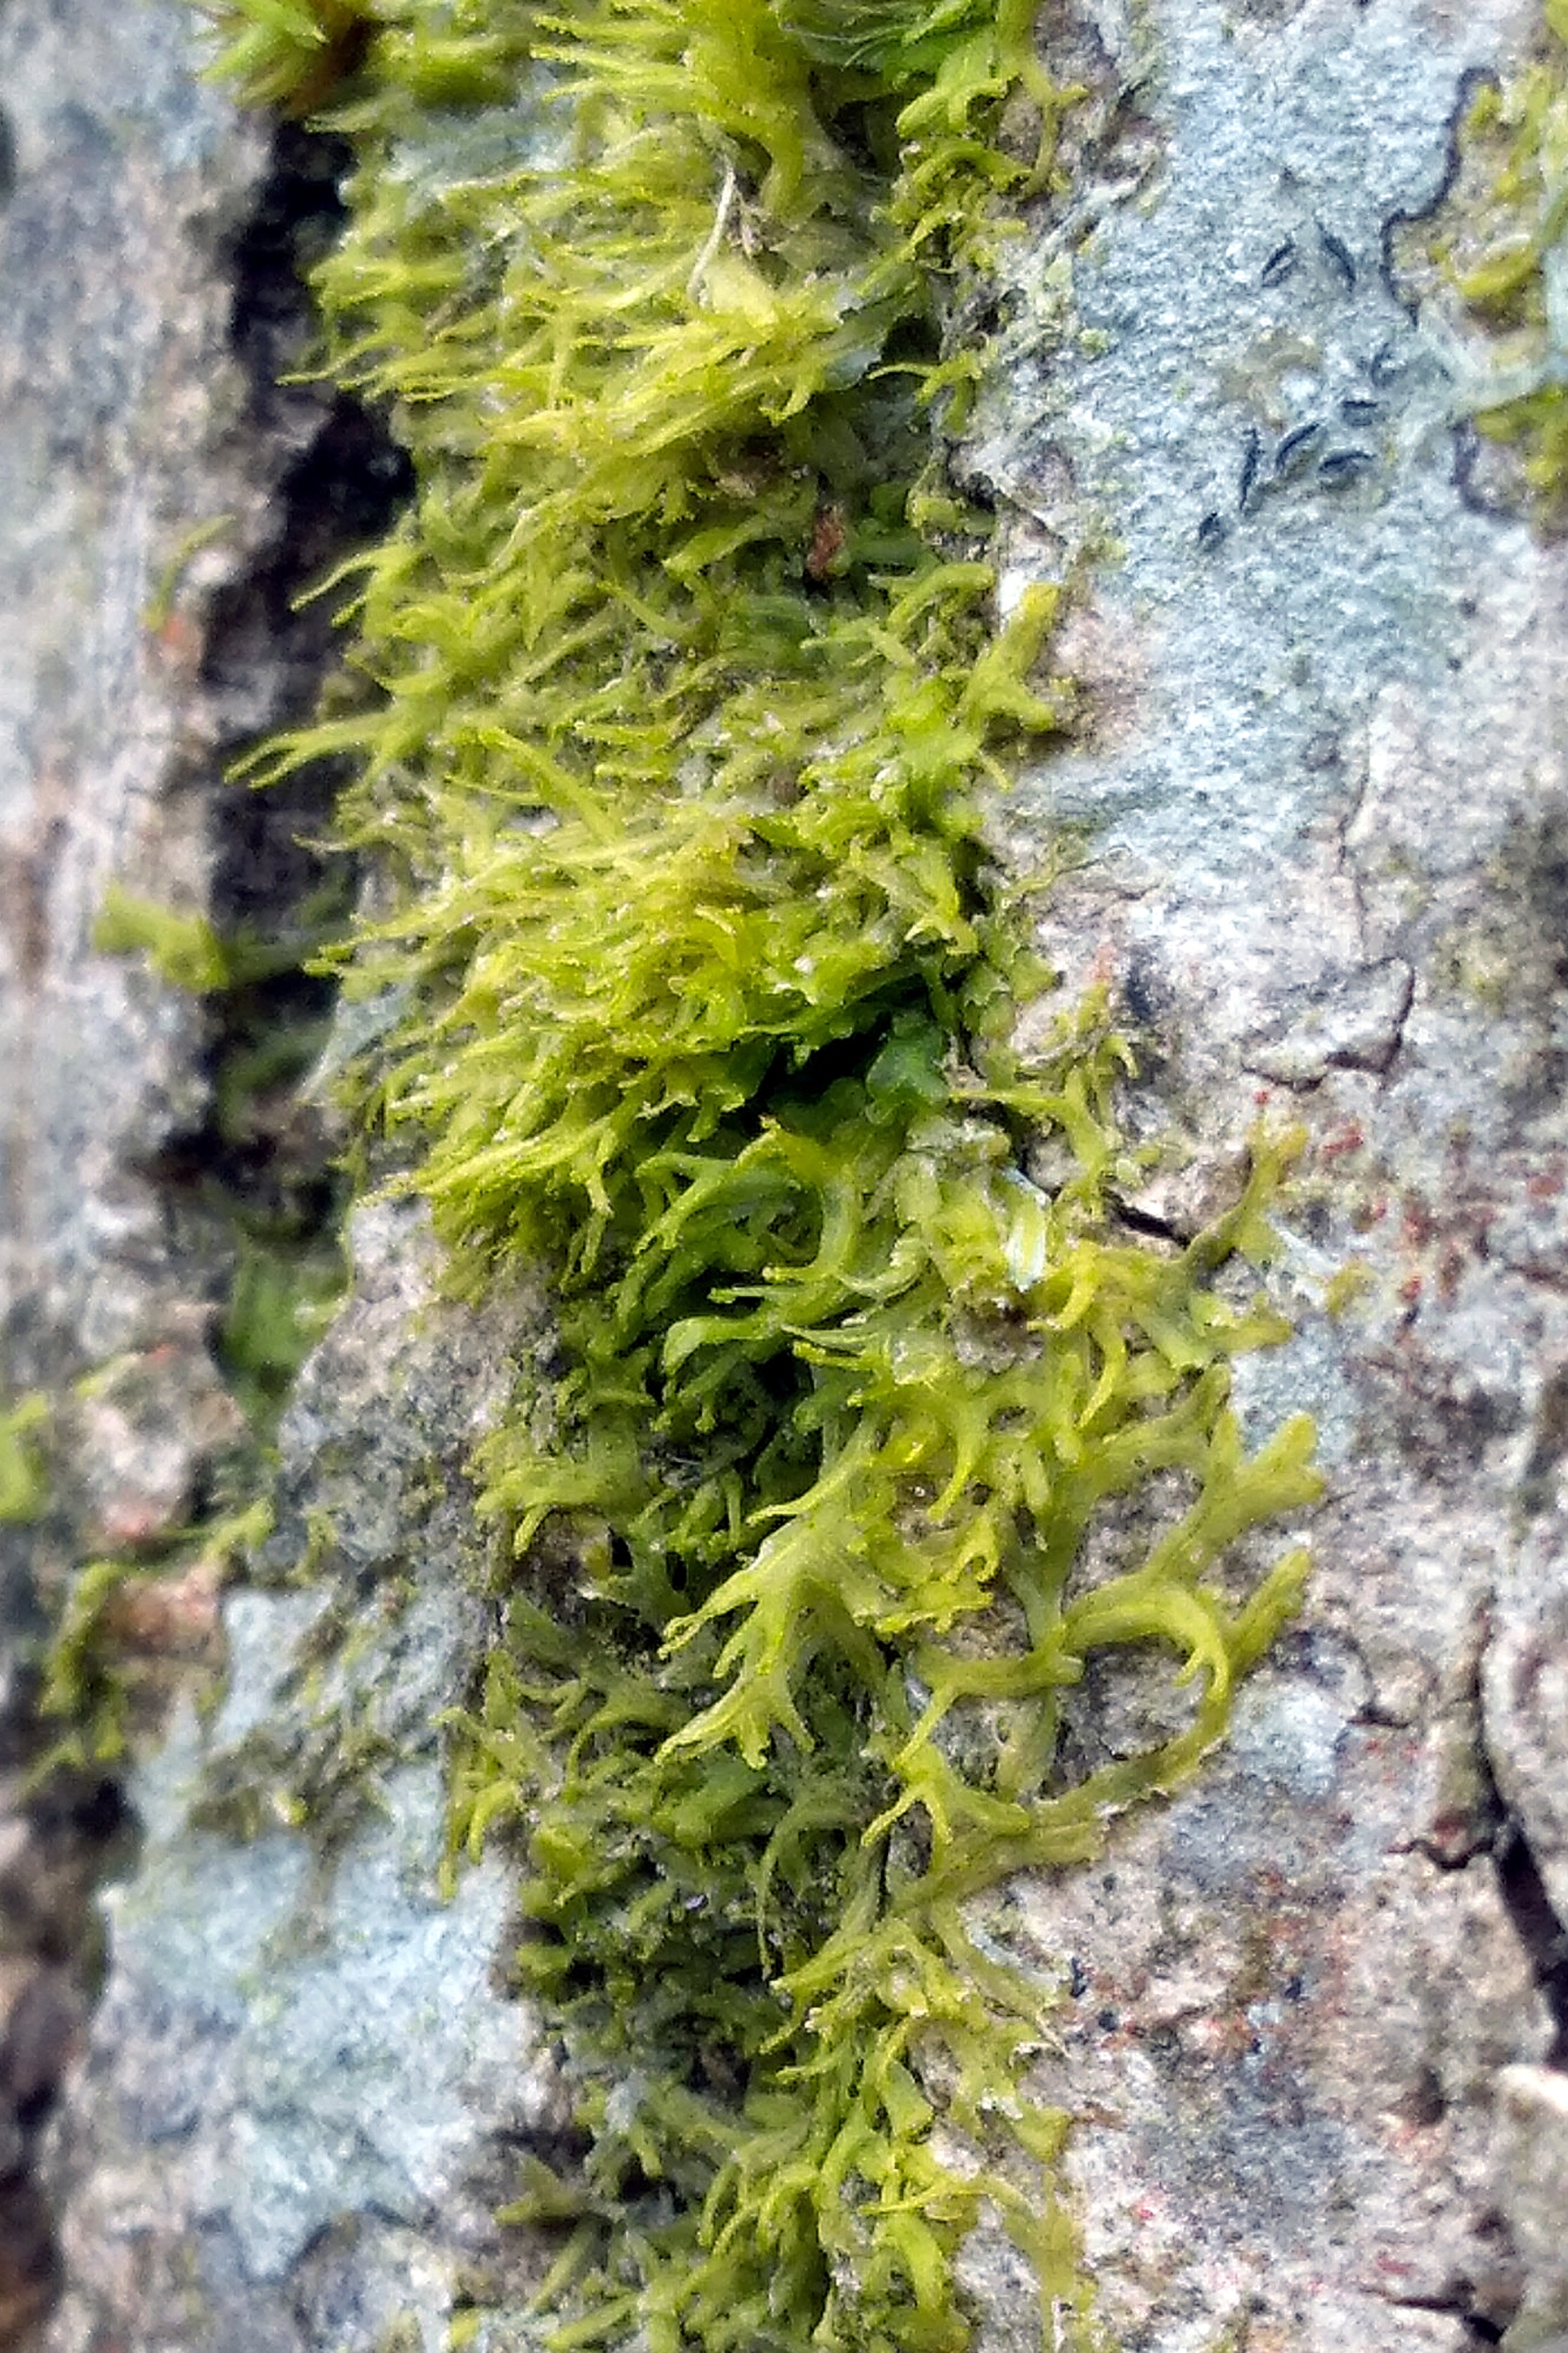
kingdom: Plantae
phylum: Marchantiophyta
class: Jungermanniopsida
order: Metzgeriales
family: Aneuraceae
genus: Riccardia
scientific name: Riccardia palmata
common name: Blågrøn gaffelløv
